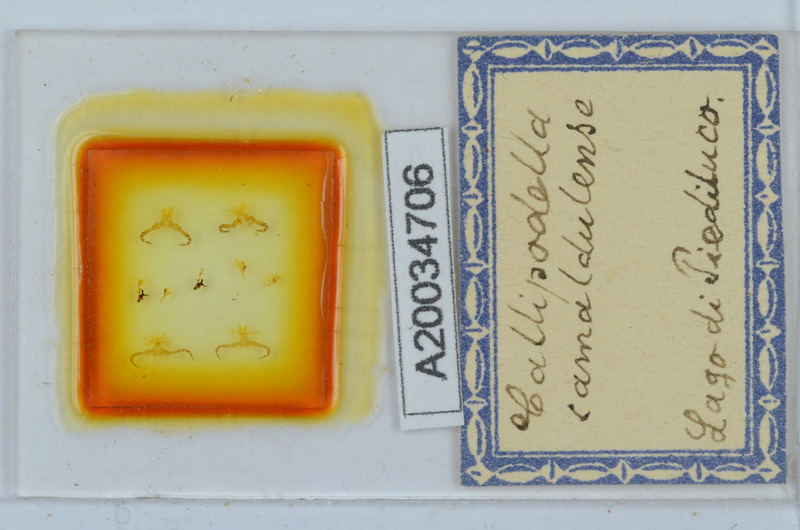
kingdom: Animalia
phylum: Arthropoda
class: Diplopoda
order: Callipodida
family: Schizopetalidae
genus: Callipodella
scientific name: Callipodella vinciguerrae
